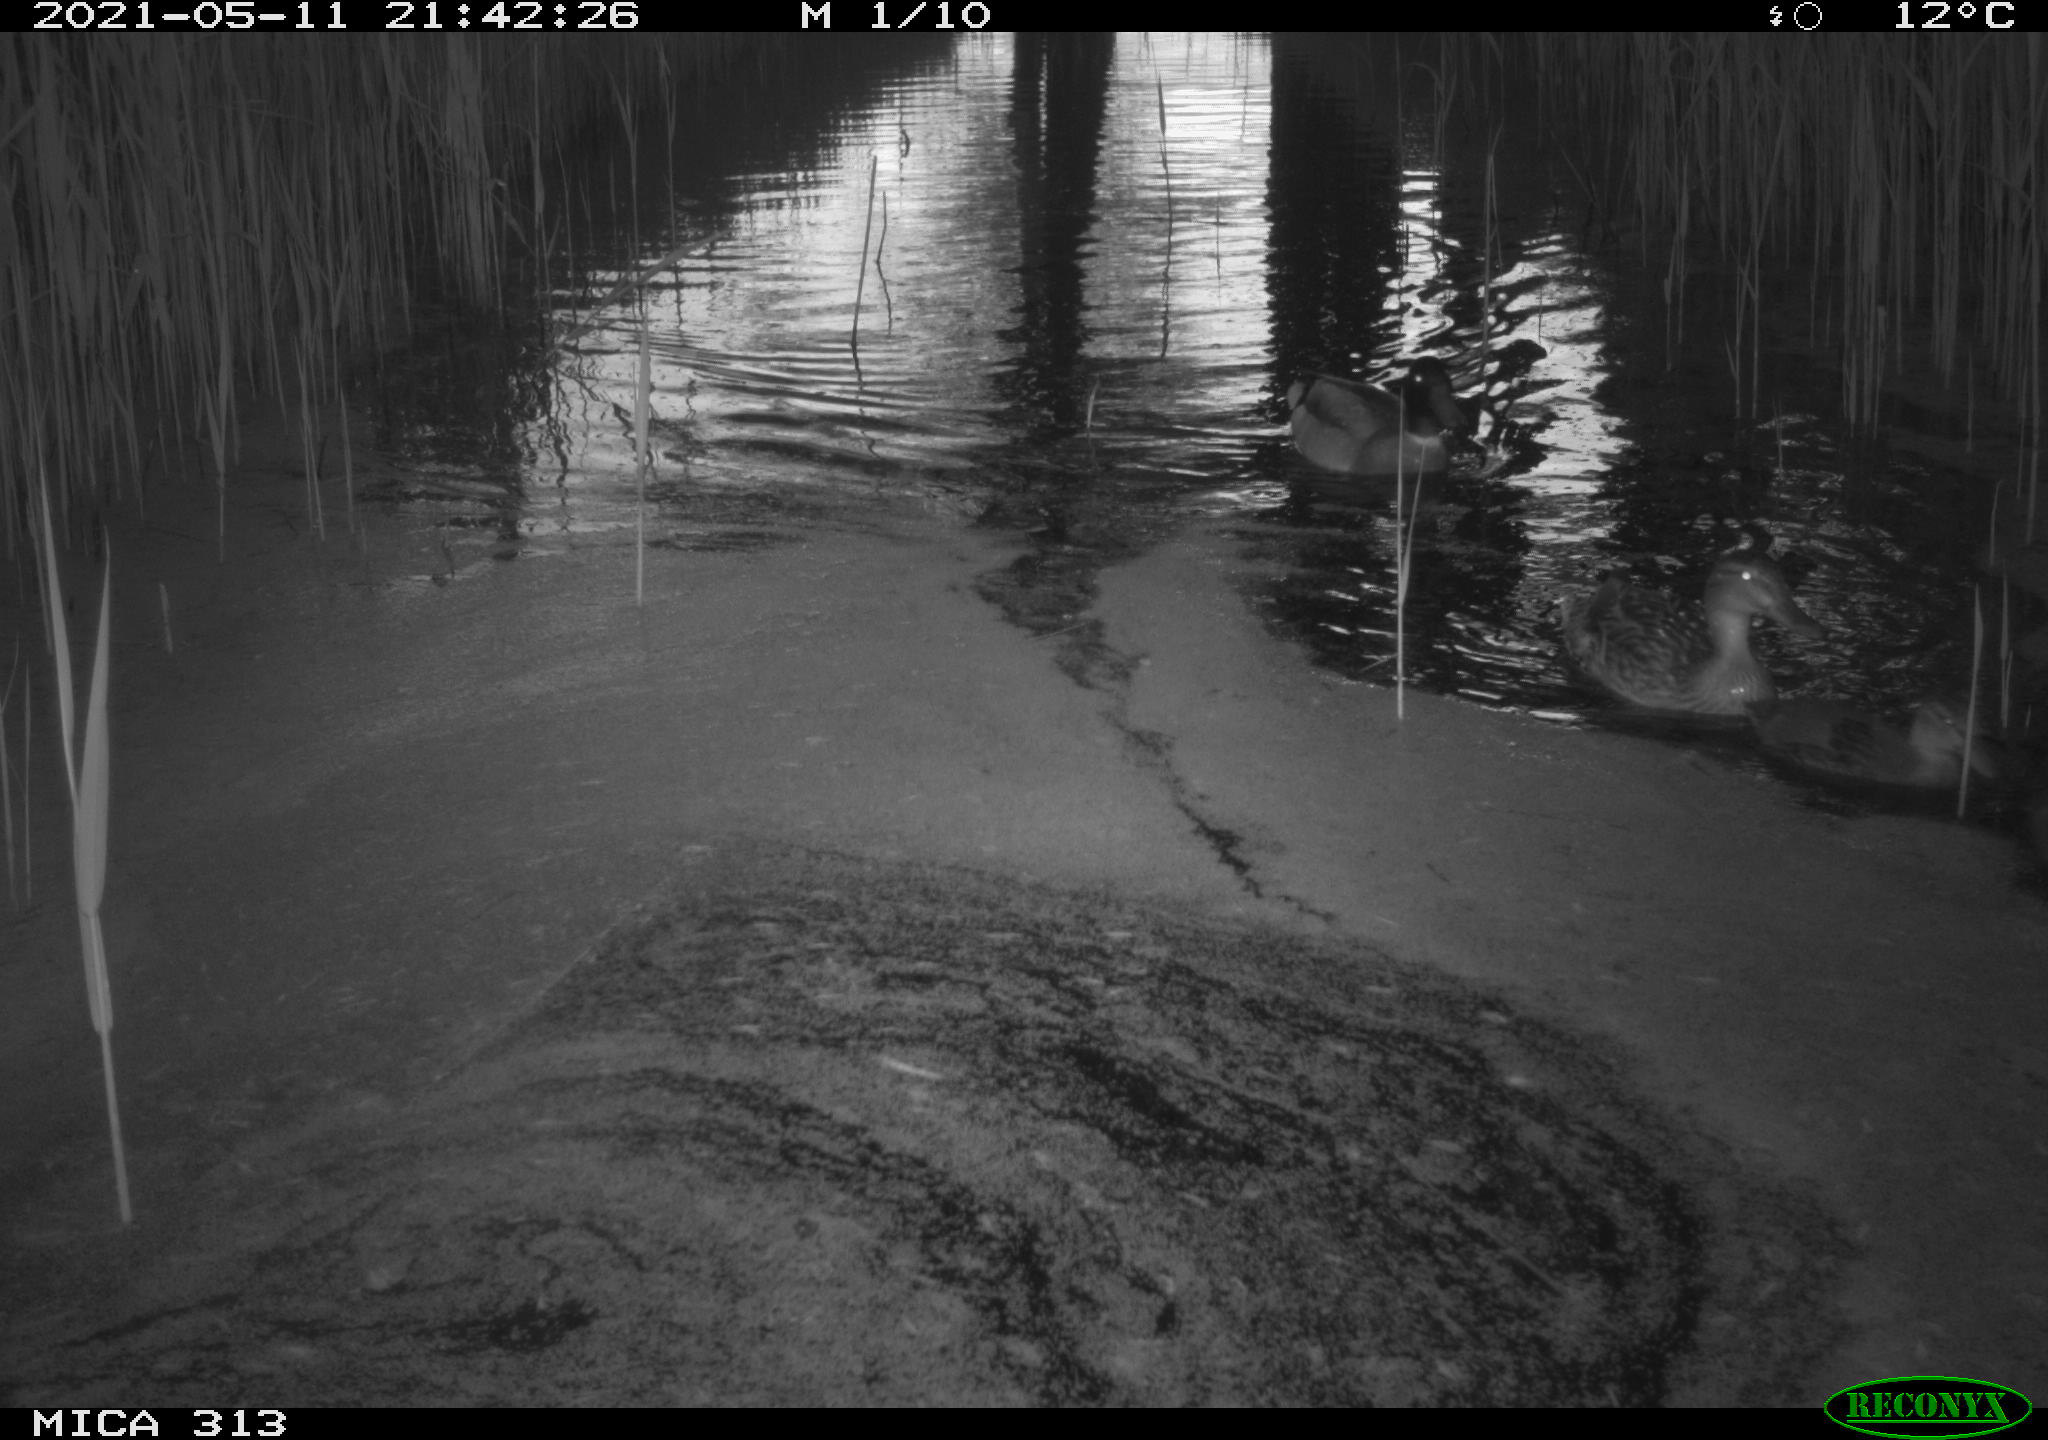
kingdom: Animalia
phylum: Chordata
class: Aves
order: Gruiformes
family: Rallidae
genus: Fulica
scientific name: Fulica atra
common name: Eurasian coot
